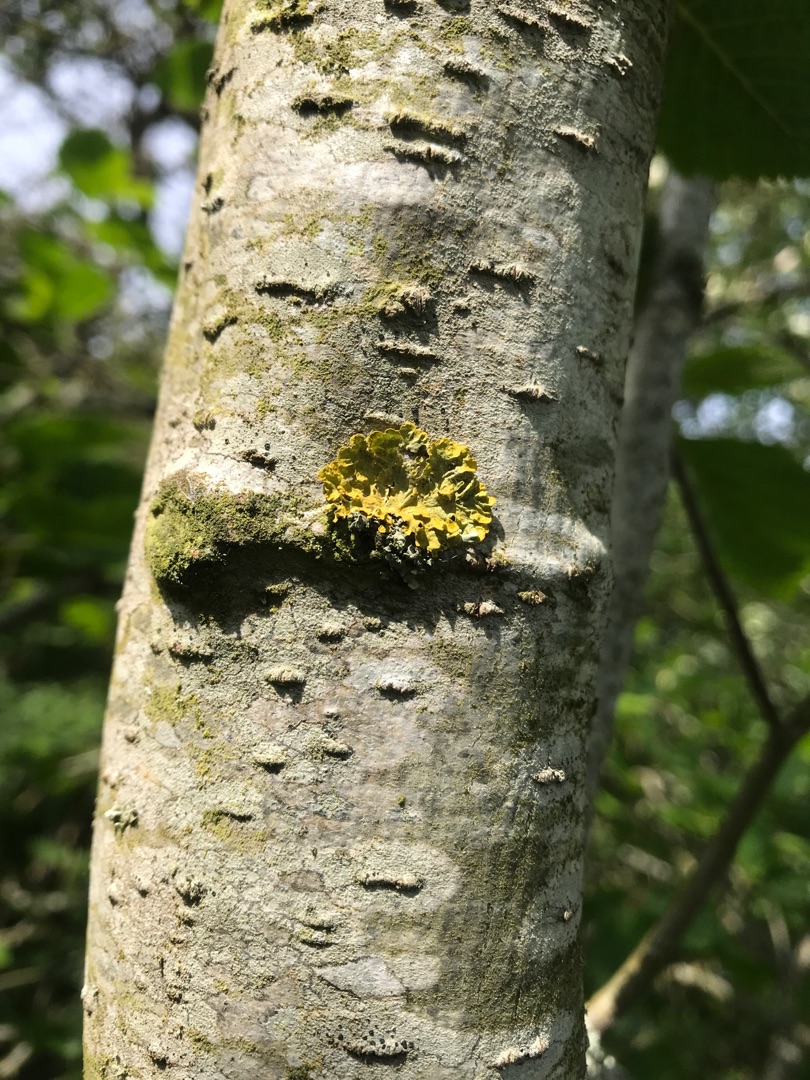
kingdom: Fungi
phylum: Ascomycota
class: Lecanoromycetes
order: Teloschistales
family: Teloschistaceae
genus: Xanthoria
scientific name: Xanthoria parietina
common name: Almindelig væggelav
